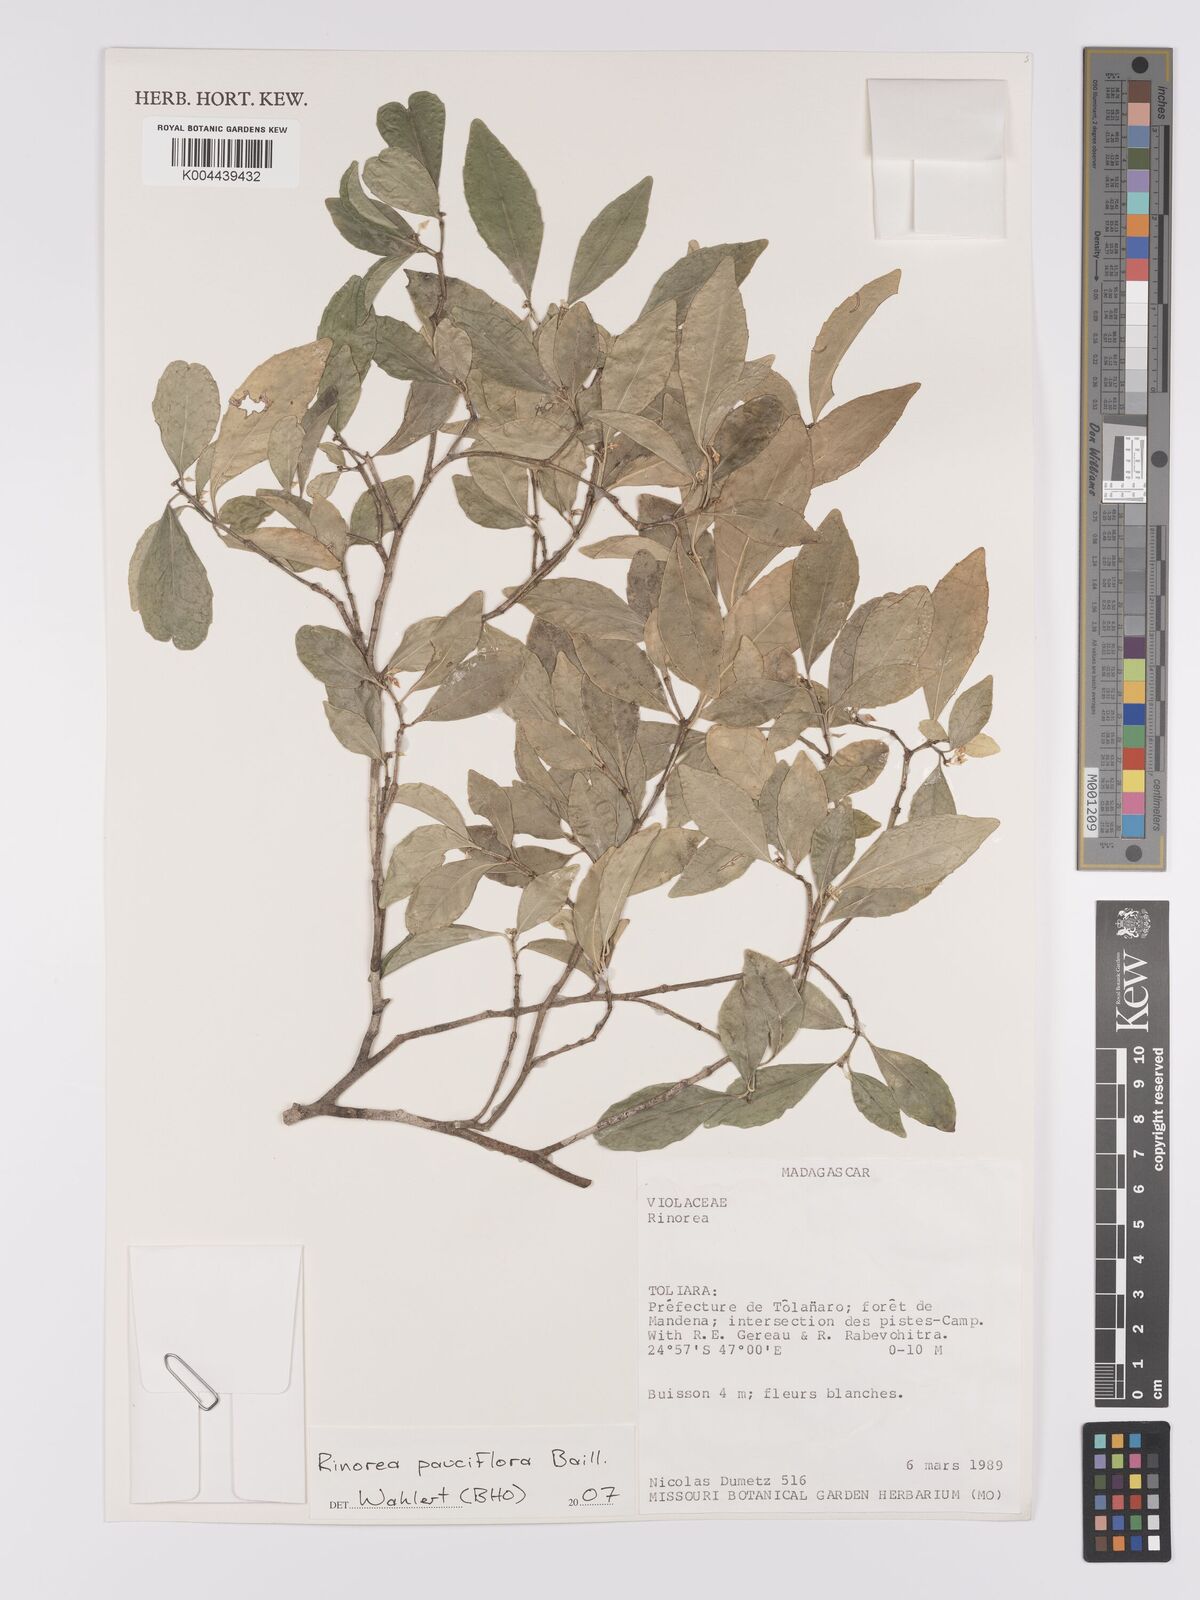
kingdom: Plantae
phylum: Tracheophyta
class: Magnoliopsida
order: Malpighiales
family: Violaceae
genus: Rinorea
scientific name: Rinorea pauciflora
